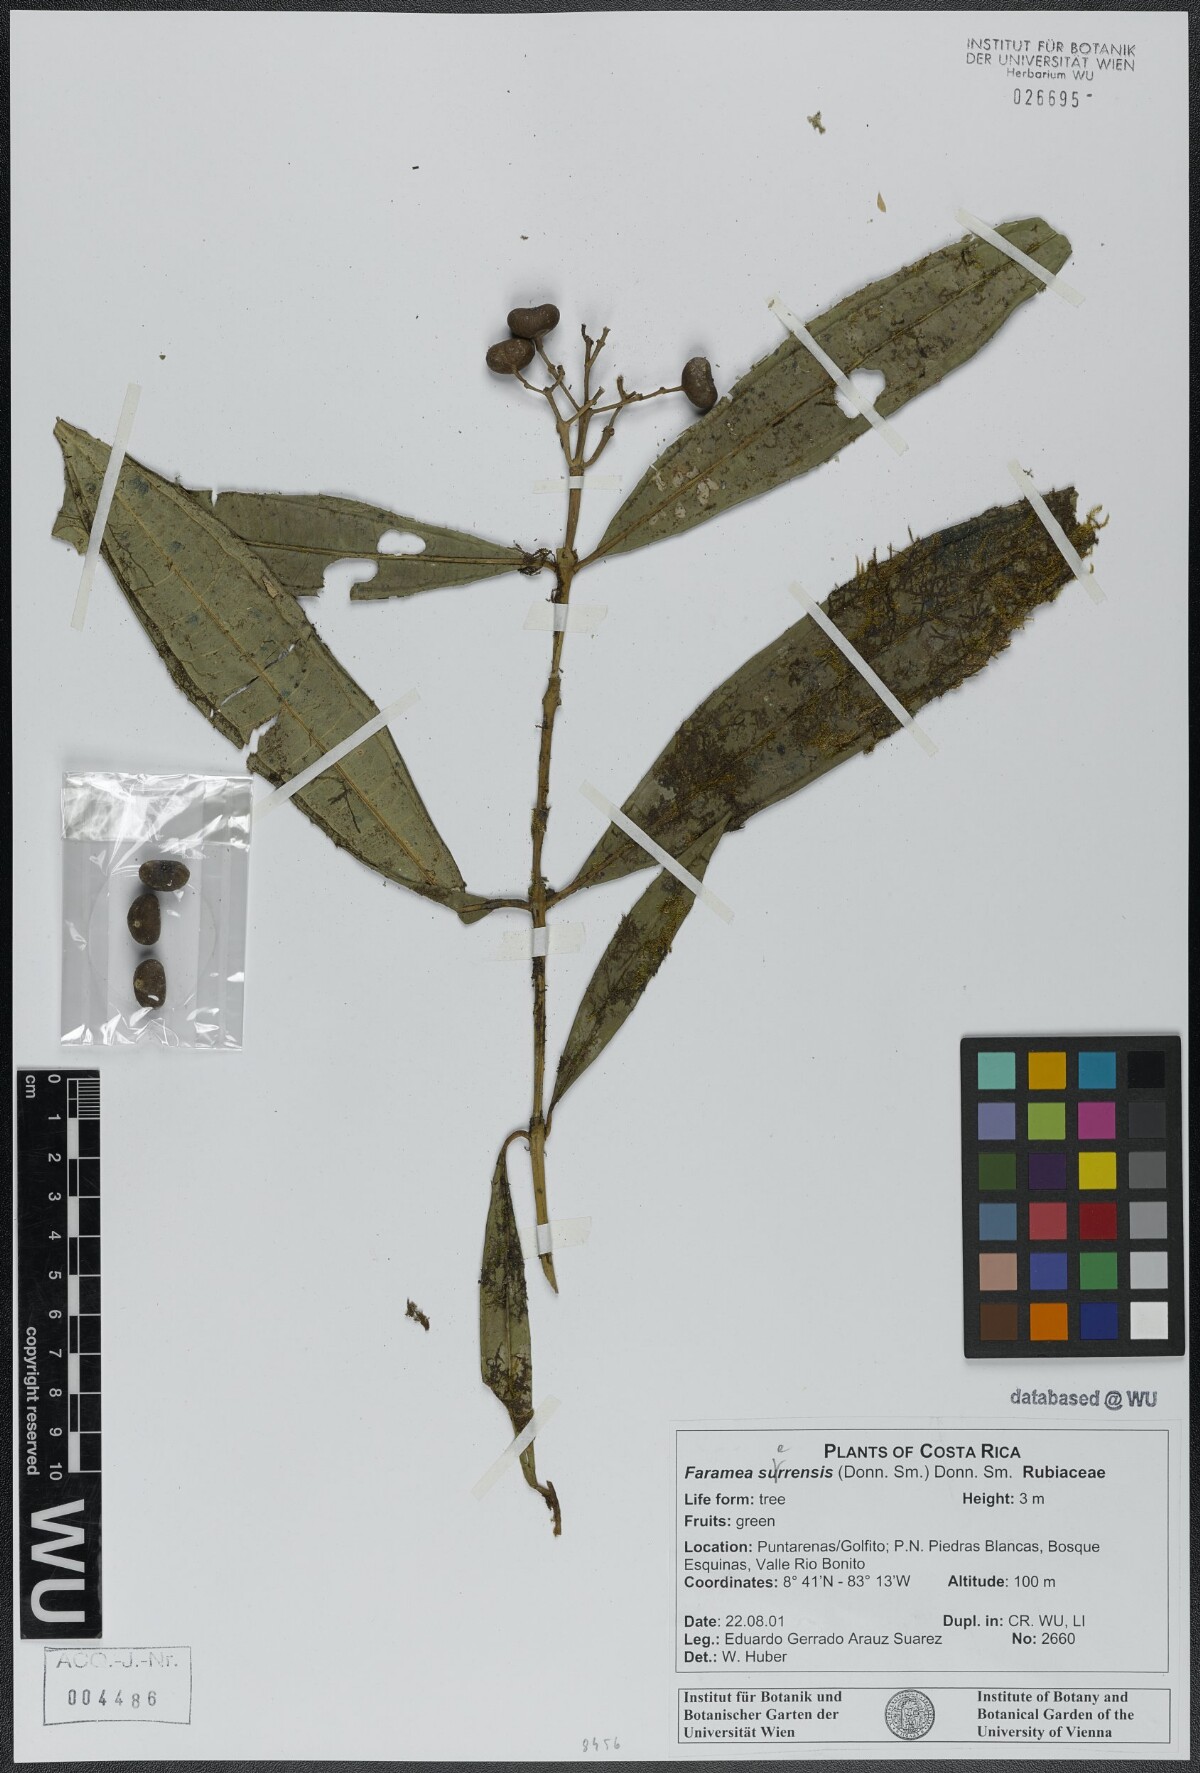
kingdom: Plantae
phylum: Tracheophyta
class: Magnoliopsida
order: Gentianales
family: Rubiaceae
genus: Faramea
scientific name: Faramea suerrensis
